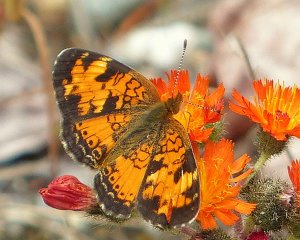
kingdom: Animalia
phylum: Arthropoda
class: Insecta
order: Lepidoptera
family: Nymphalidae
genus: Phyciodes
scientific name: Phyciodes tharos
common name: Northern Crescent
